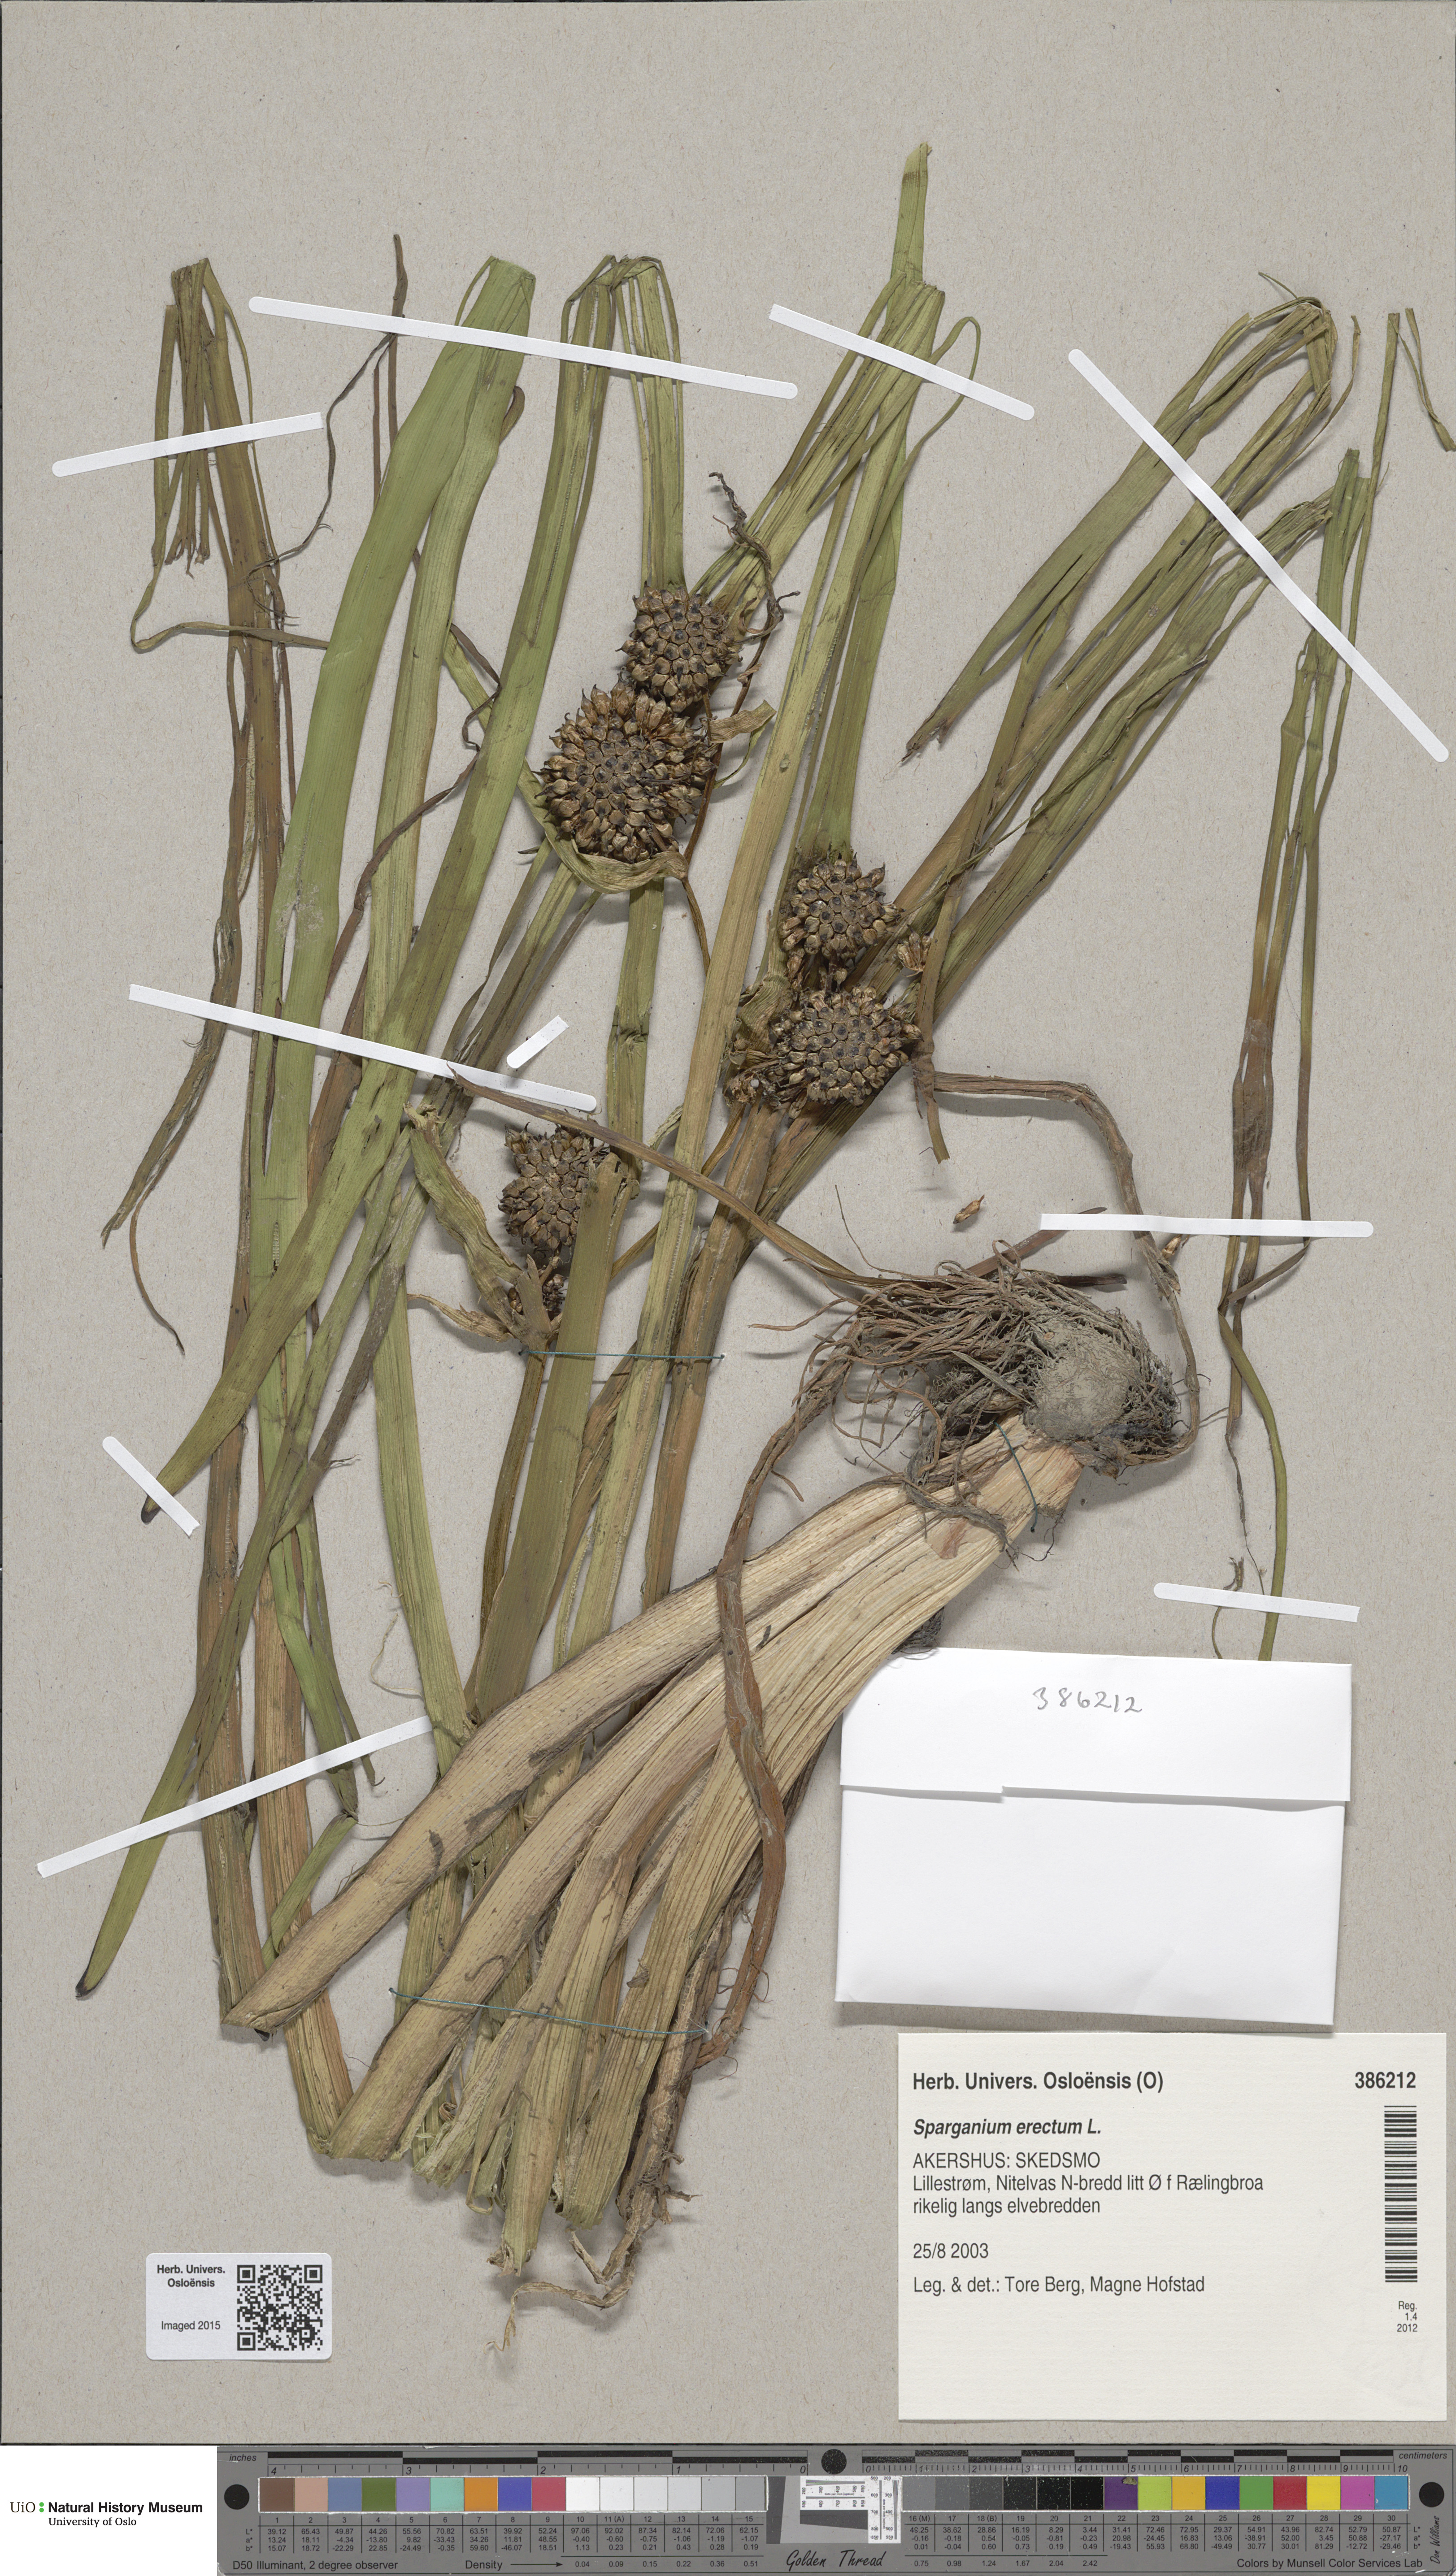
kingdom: Plantae
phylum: Tracheophyta
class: Liliopsida
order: Poales
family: Typhaceae
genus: Sparganium
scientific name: Sparganium erectum
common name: Branched bur-reed
